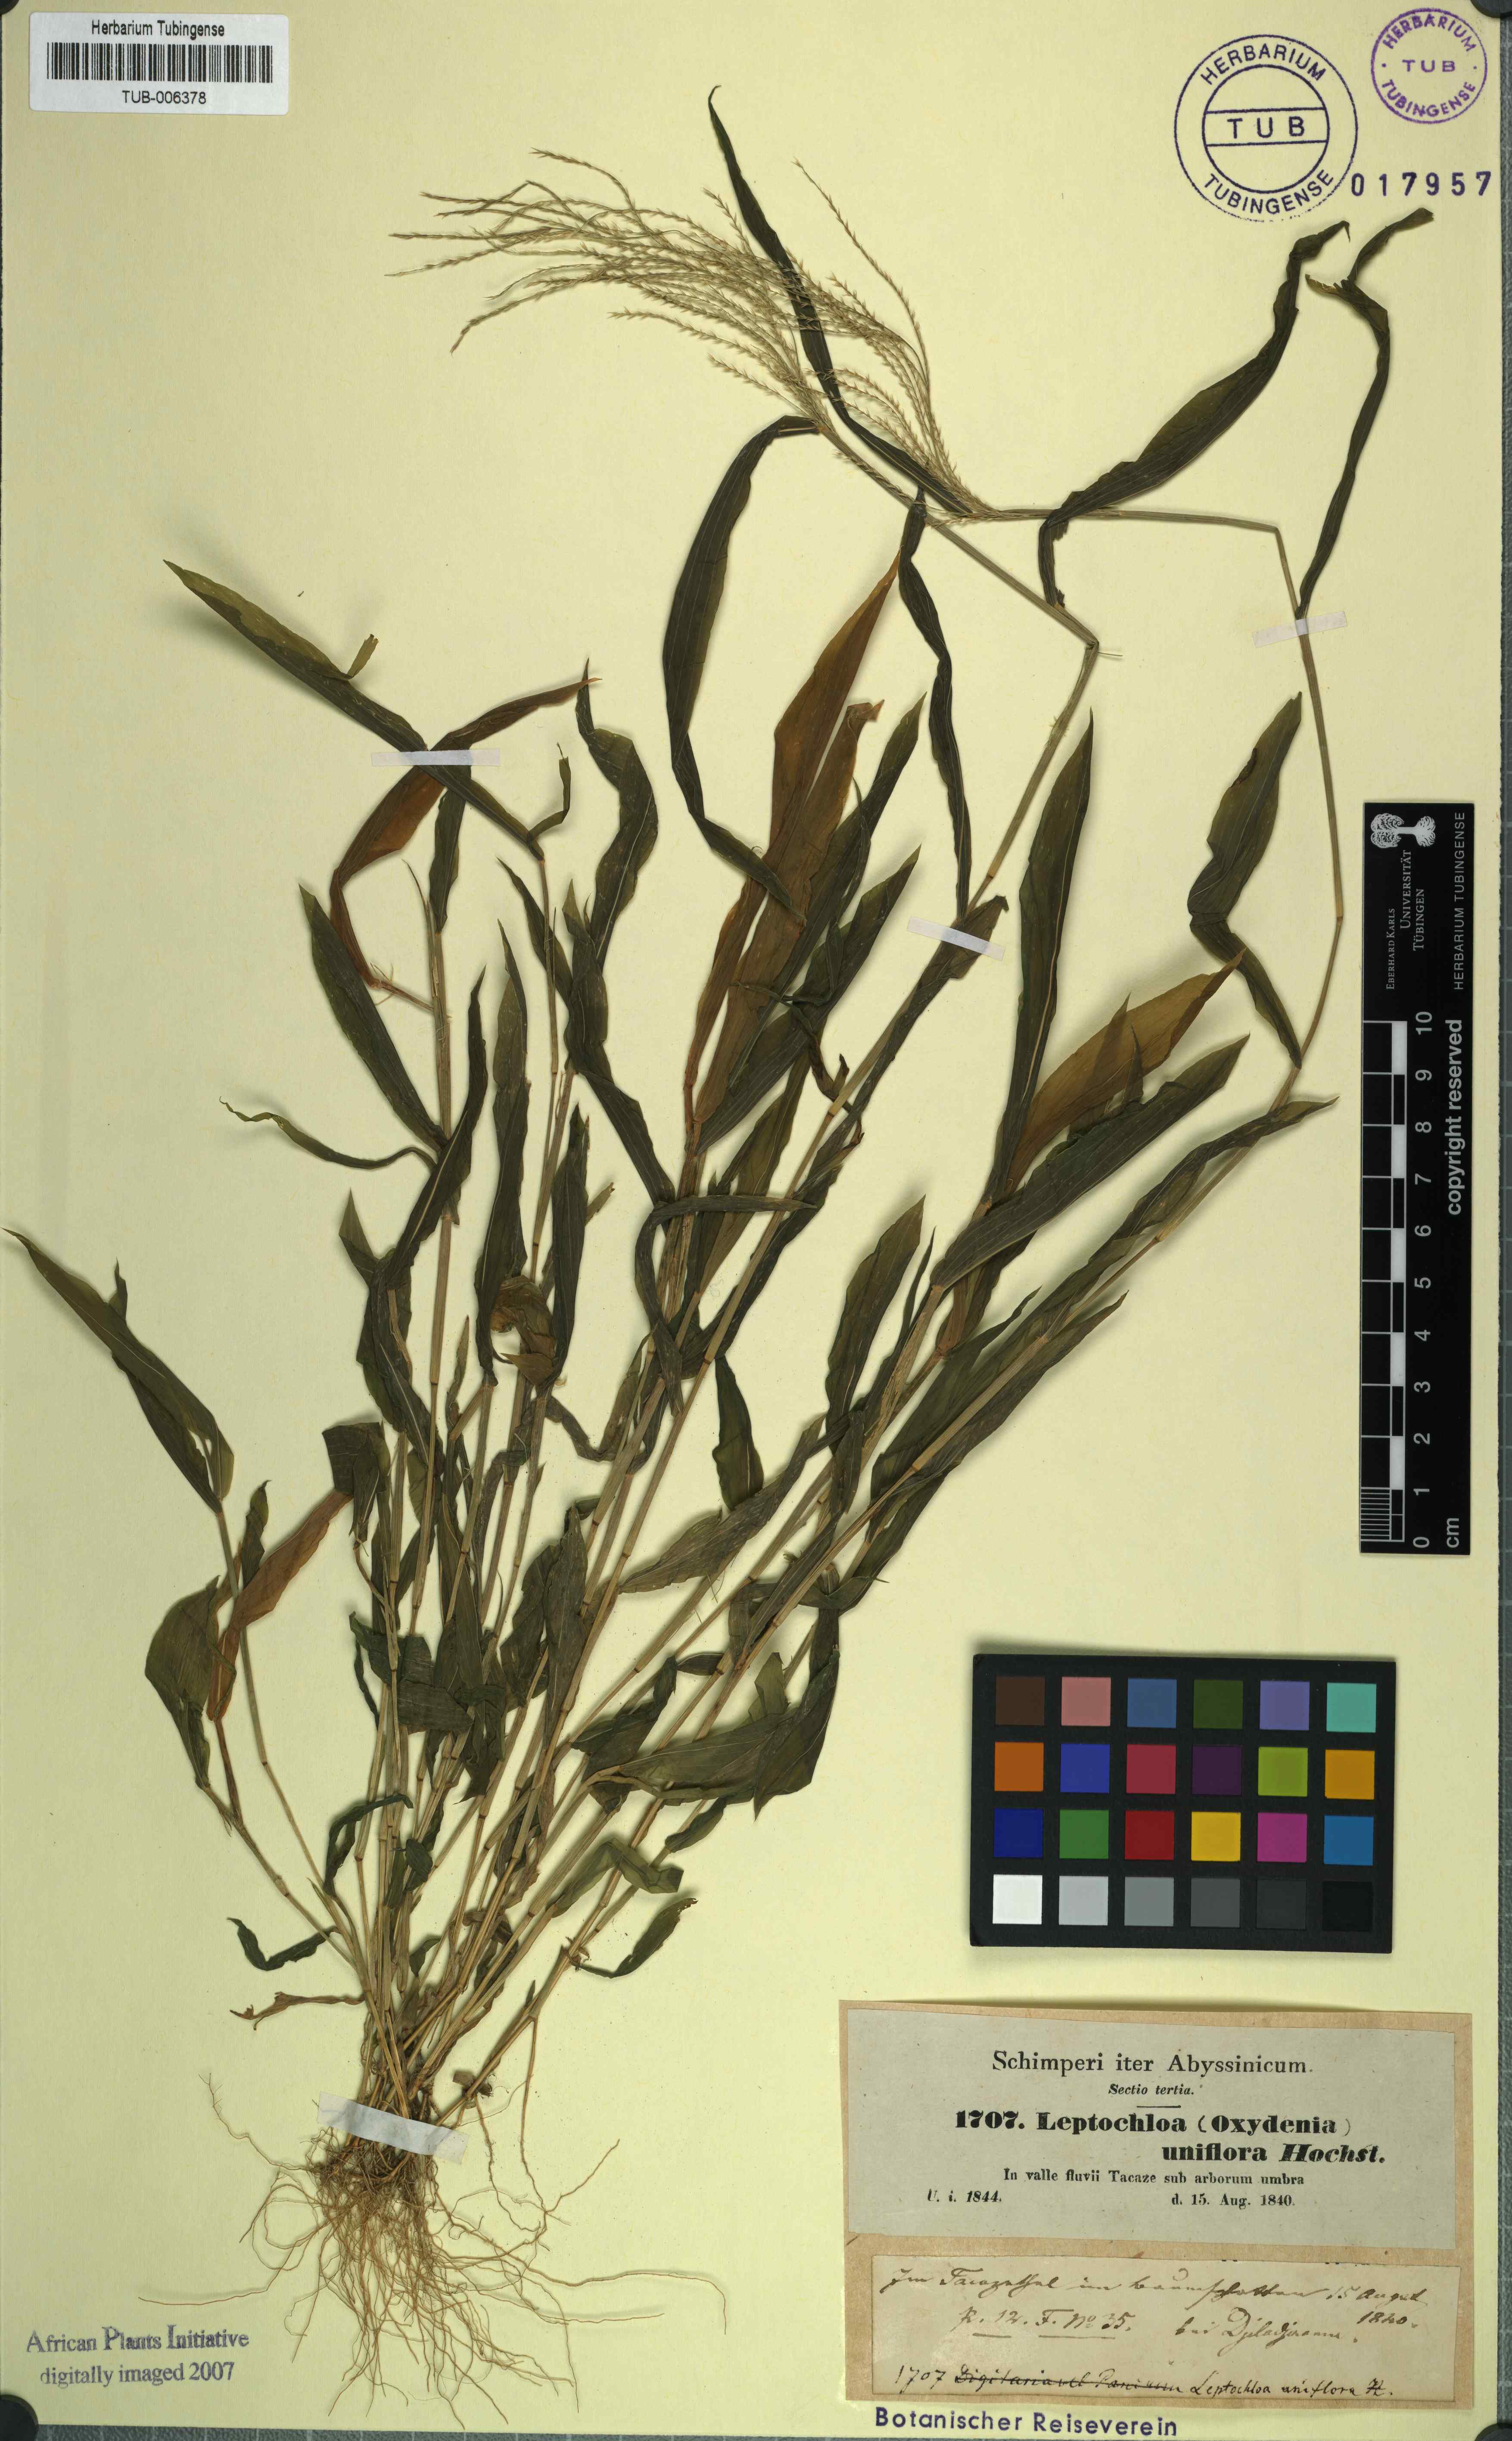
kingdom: Plantae
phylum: Tracheophyta
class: Liliopsida
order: Poales
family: Poaceae
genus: Trigonochloa
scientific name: Trigonochloa uniflora
